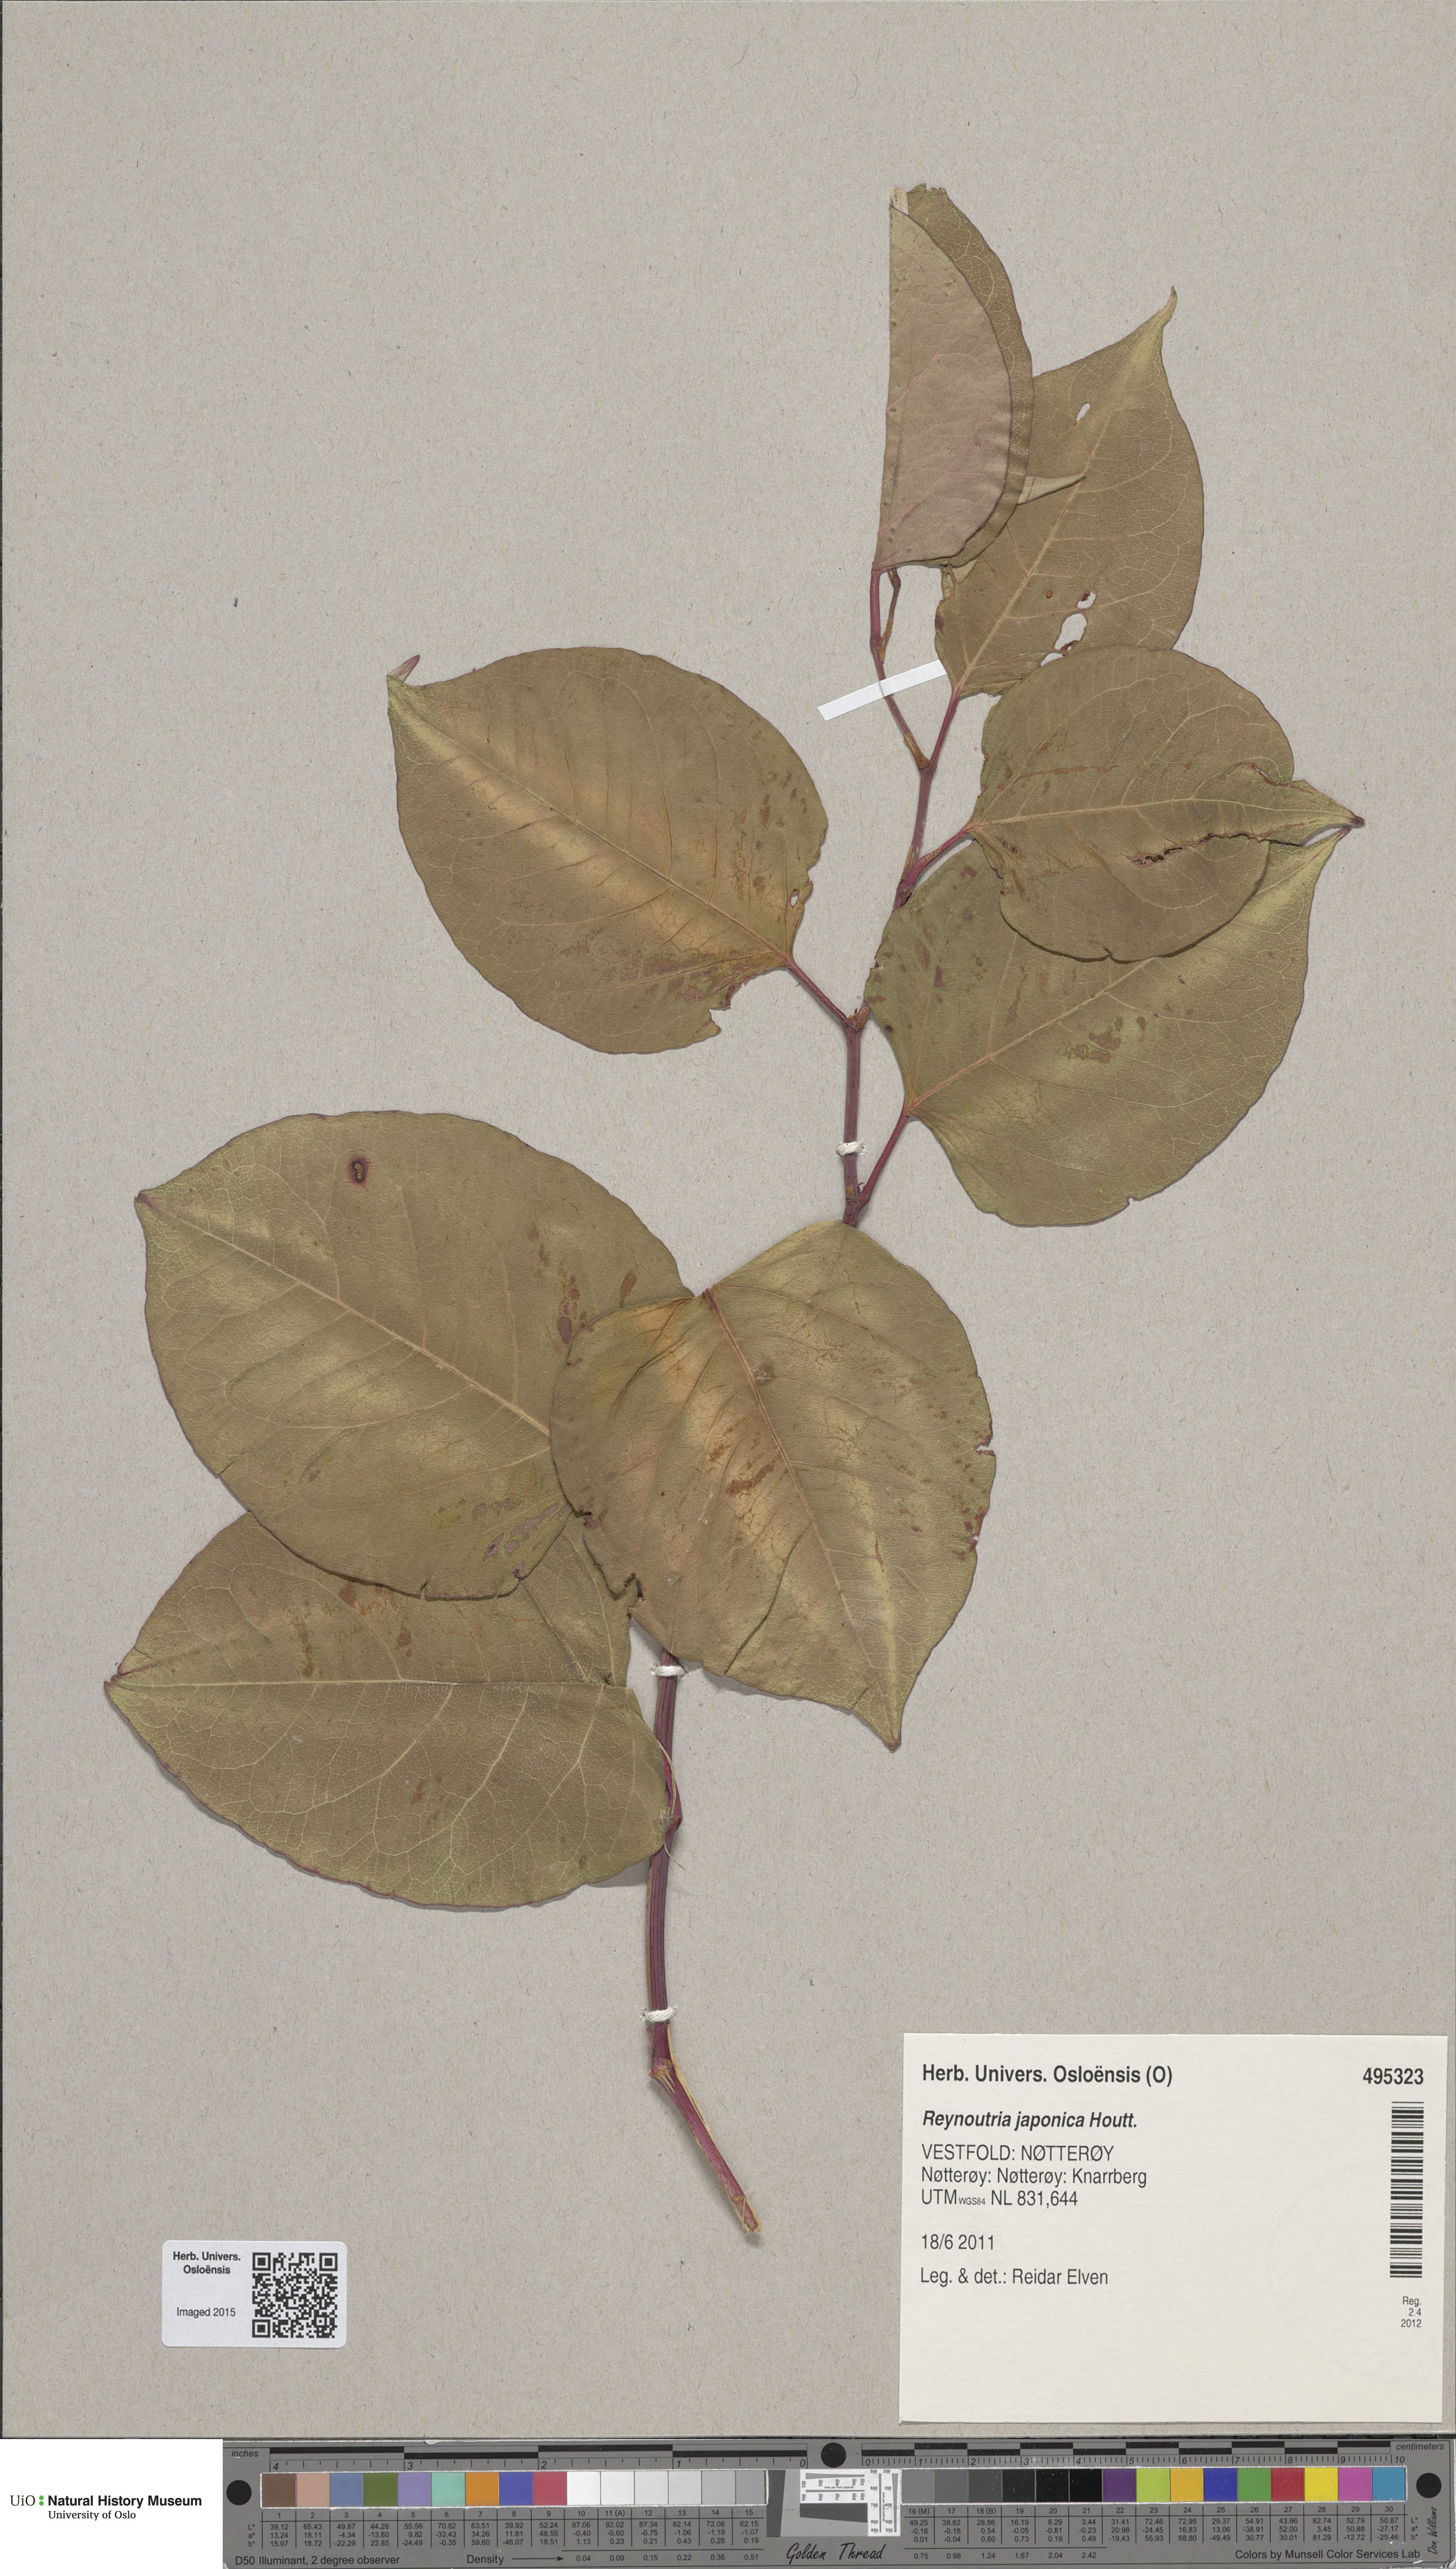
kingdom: Plantae
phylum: Tracheophyta
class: Magnoliopsida
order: Caryophyllales
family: Polygonaceae
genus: Reynoutria
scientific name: Reynoutria japonica
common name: Japanese knotweed
